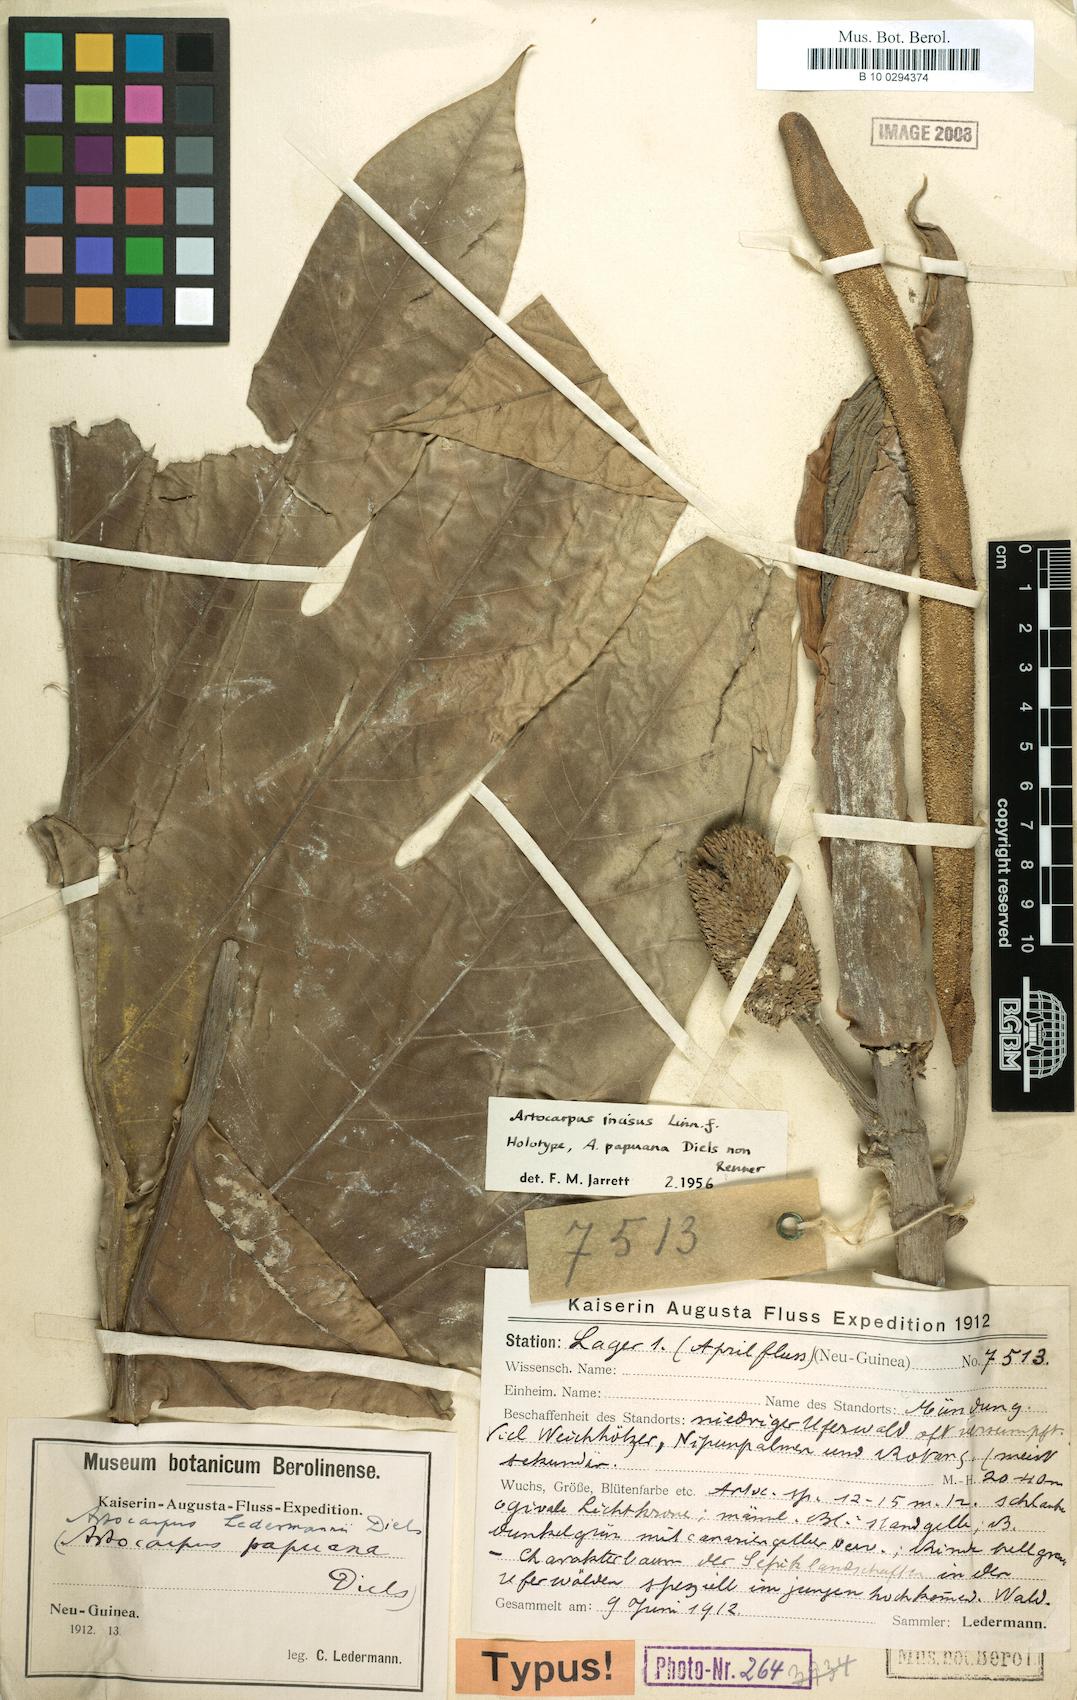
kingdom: Plantae
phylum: Tracheophyta
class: Magnoliopsida
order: Rosales
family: Moraceae
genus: Artocarpus
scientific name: Artocarpus altilis
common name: Breadfruit
